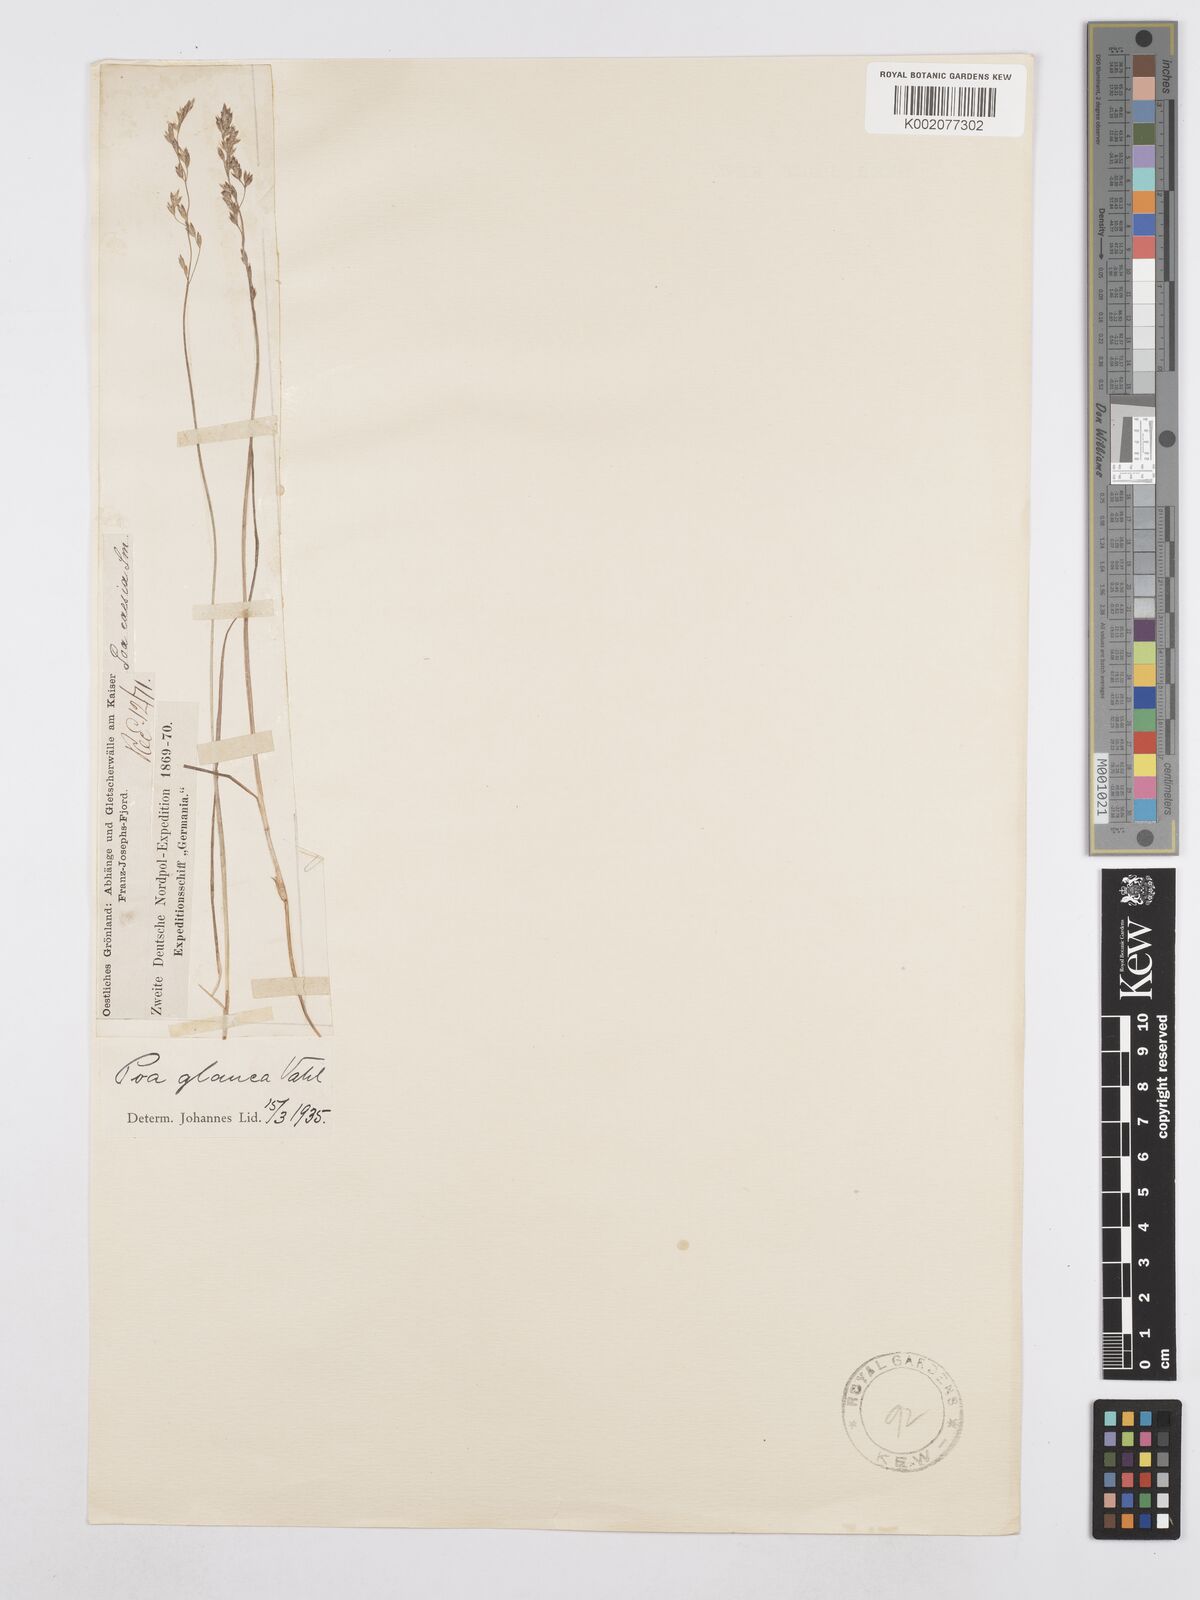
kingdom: Plantae
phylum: Tracheophyta
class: Liliopsida
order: Poales
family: Poaceae
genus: Poa
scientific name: Poa glauca
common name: Glaucous bluegrass
